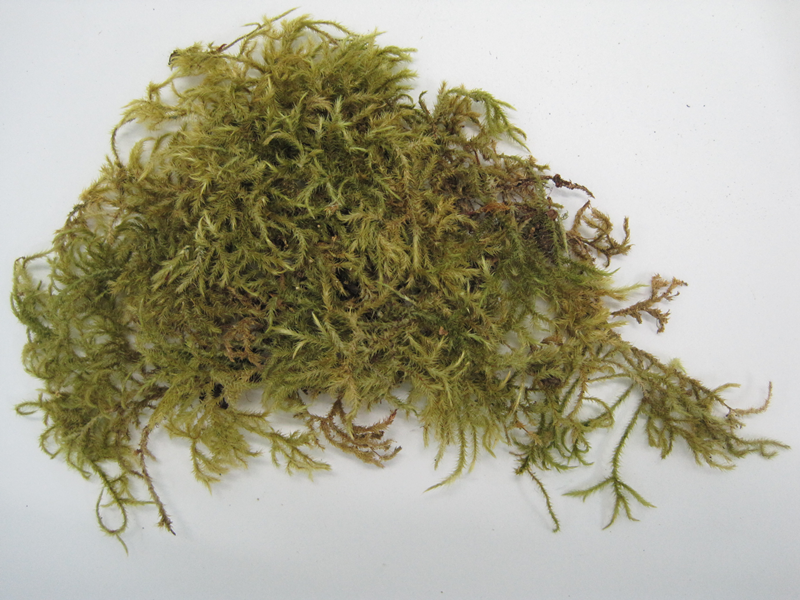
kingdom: Plantae
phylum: Bryophyta
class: Bryopsida
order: Hypnales
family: Pylaisiadelphaceae
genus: Trismegistia
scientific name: Trismegistia calderensis
